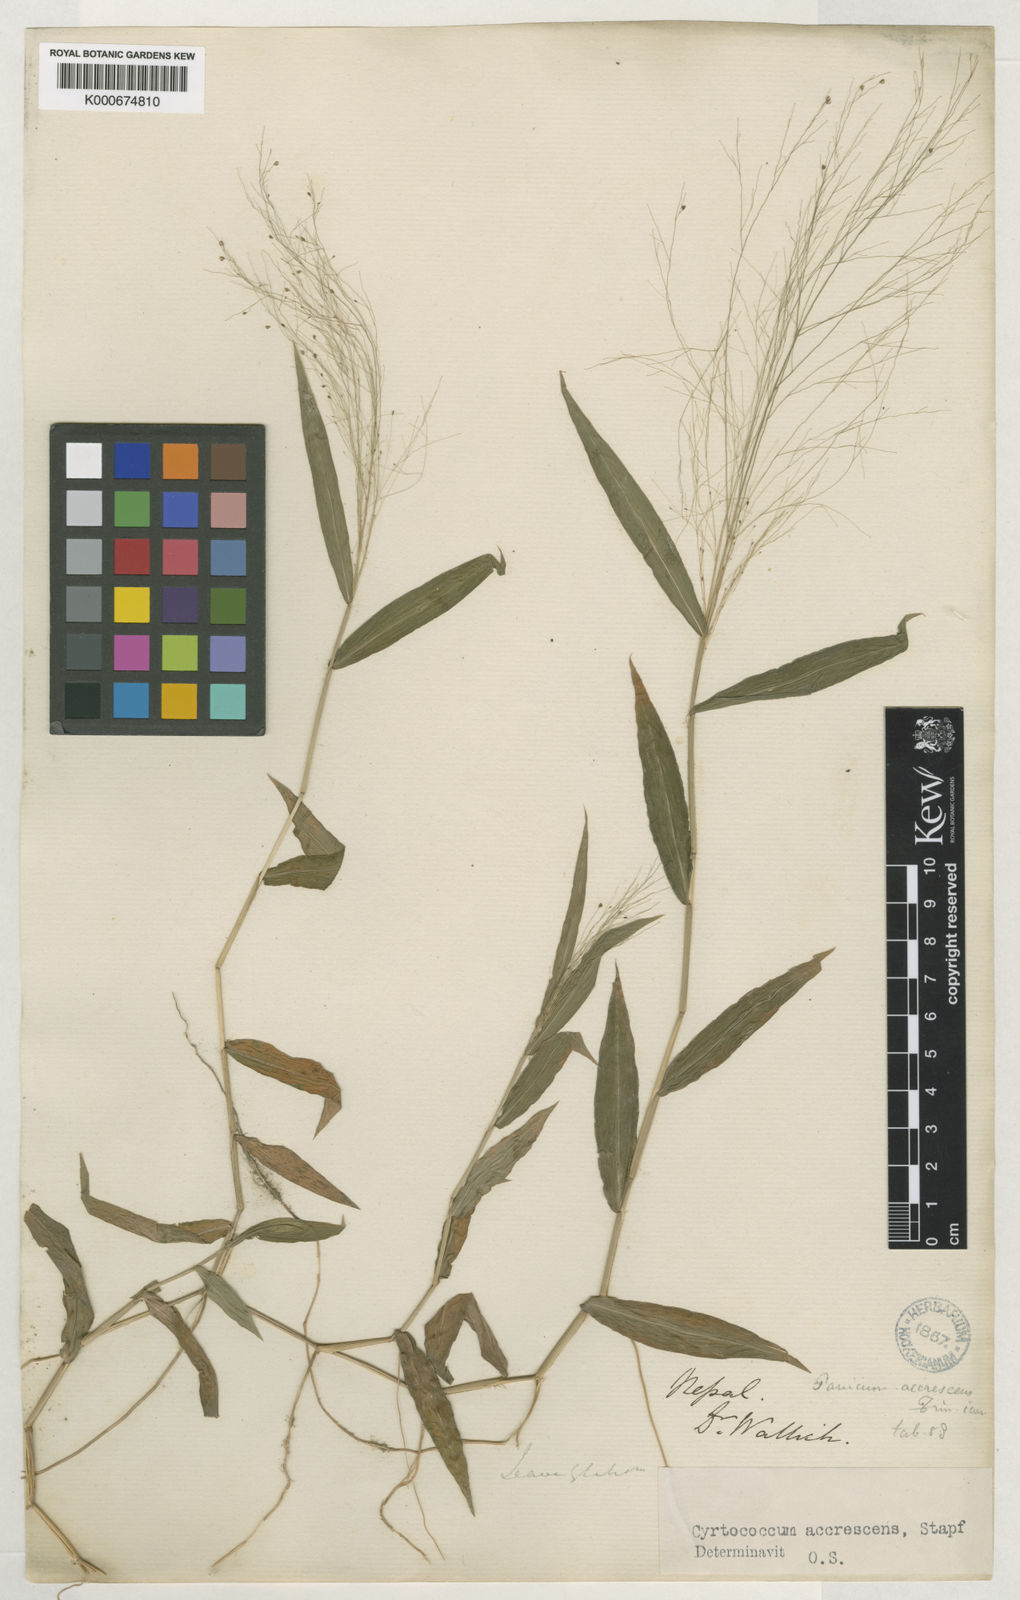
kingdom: Plantae
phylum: Tracheophyta
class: Liliopsida
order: Poales
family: Poaceae
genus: Cyrtococcum
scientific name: Cyrtococcum accrescens
